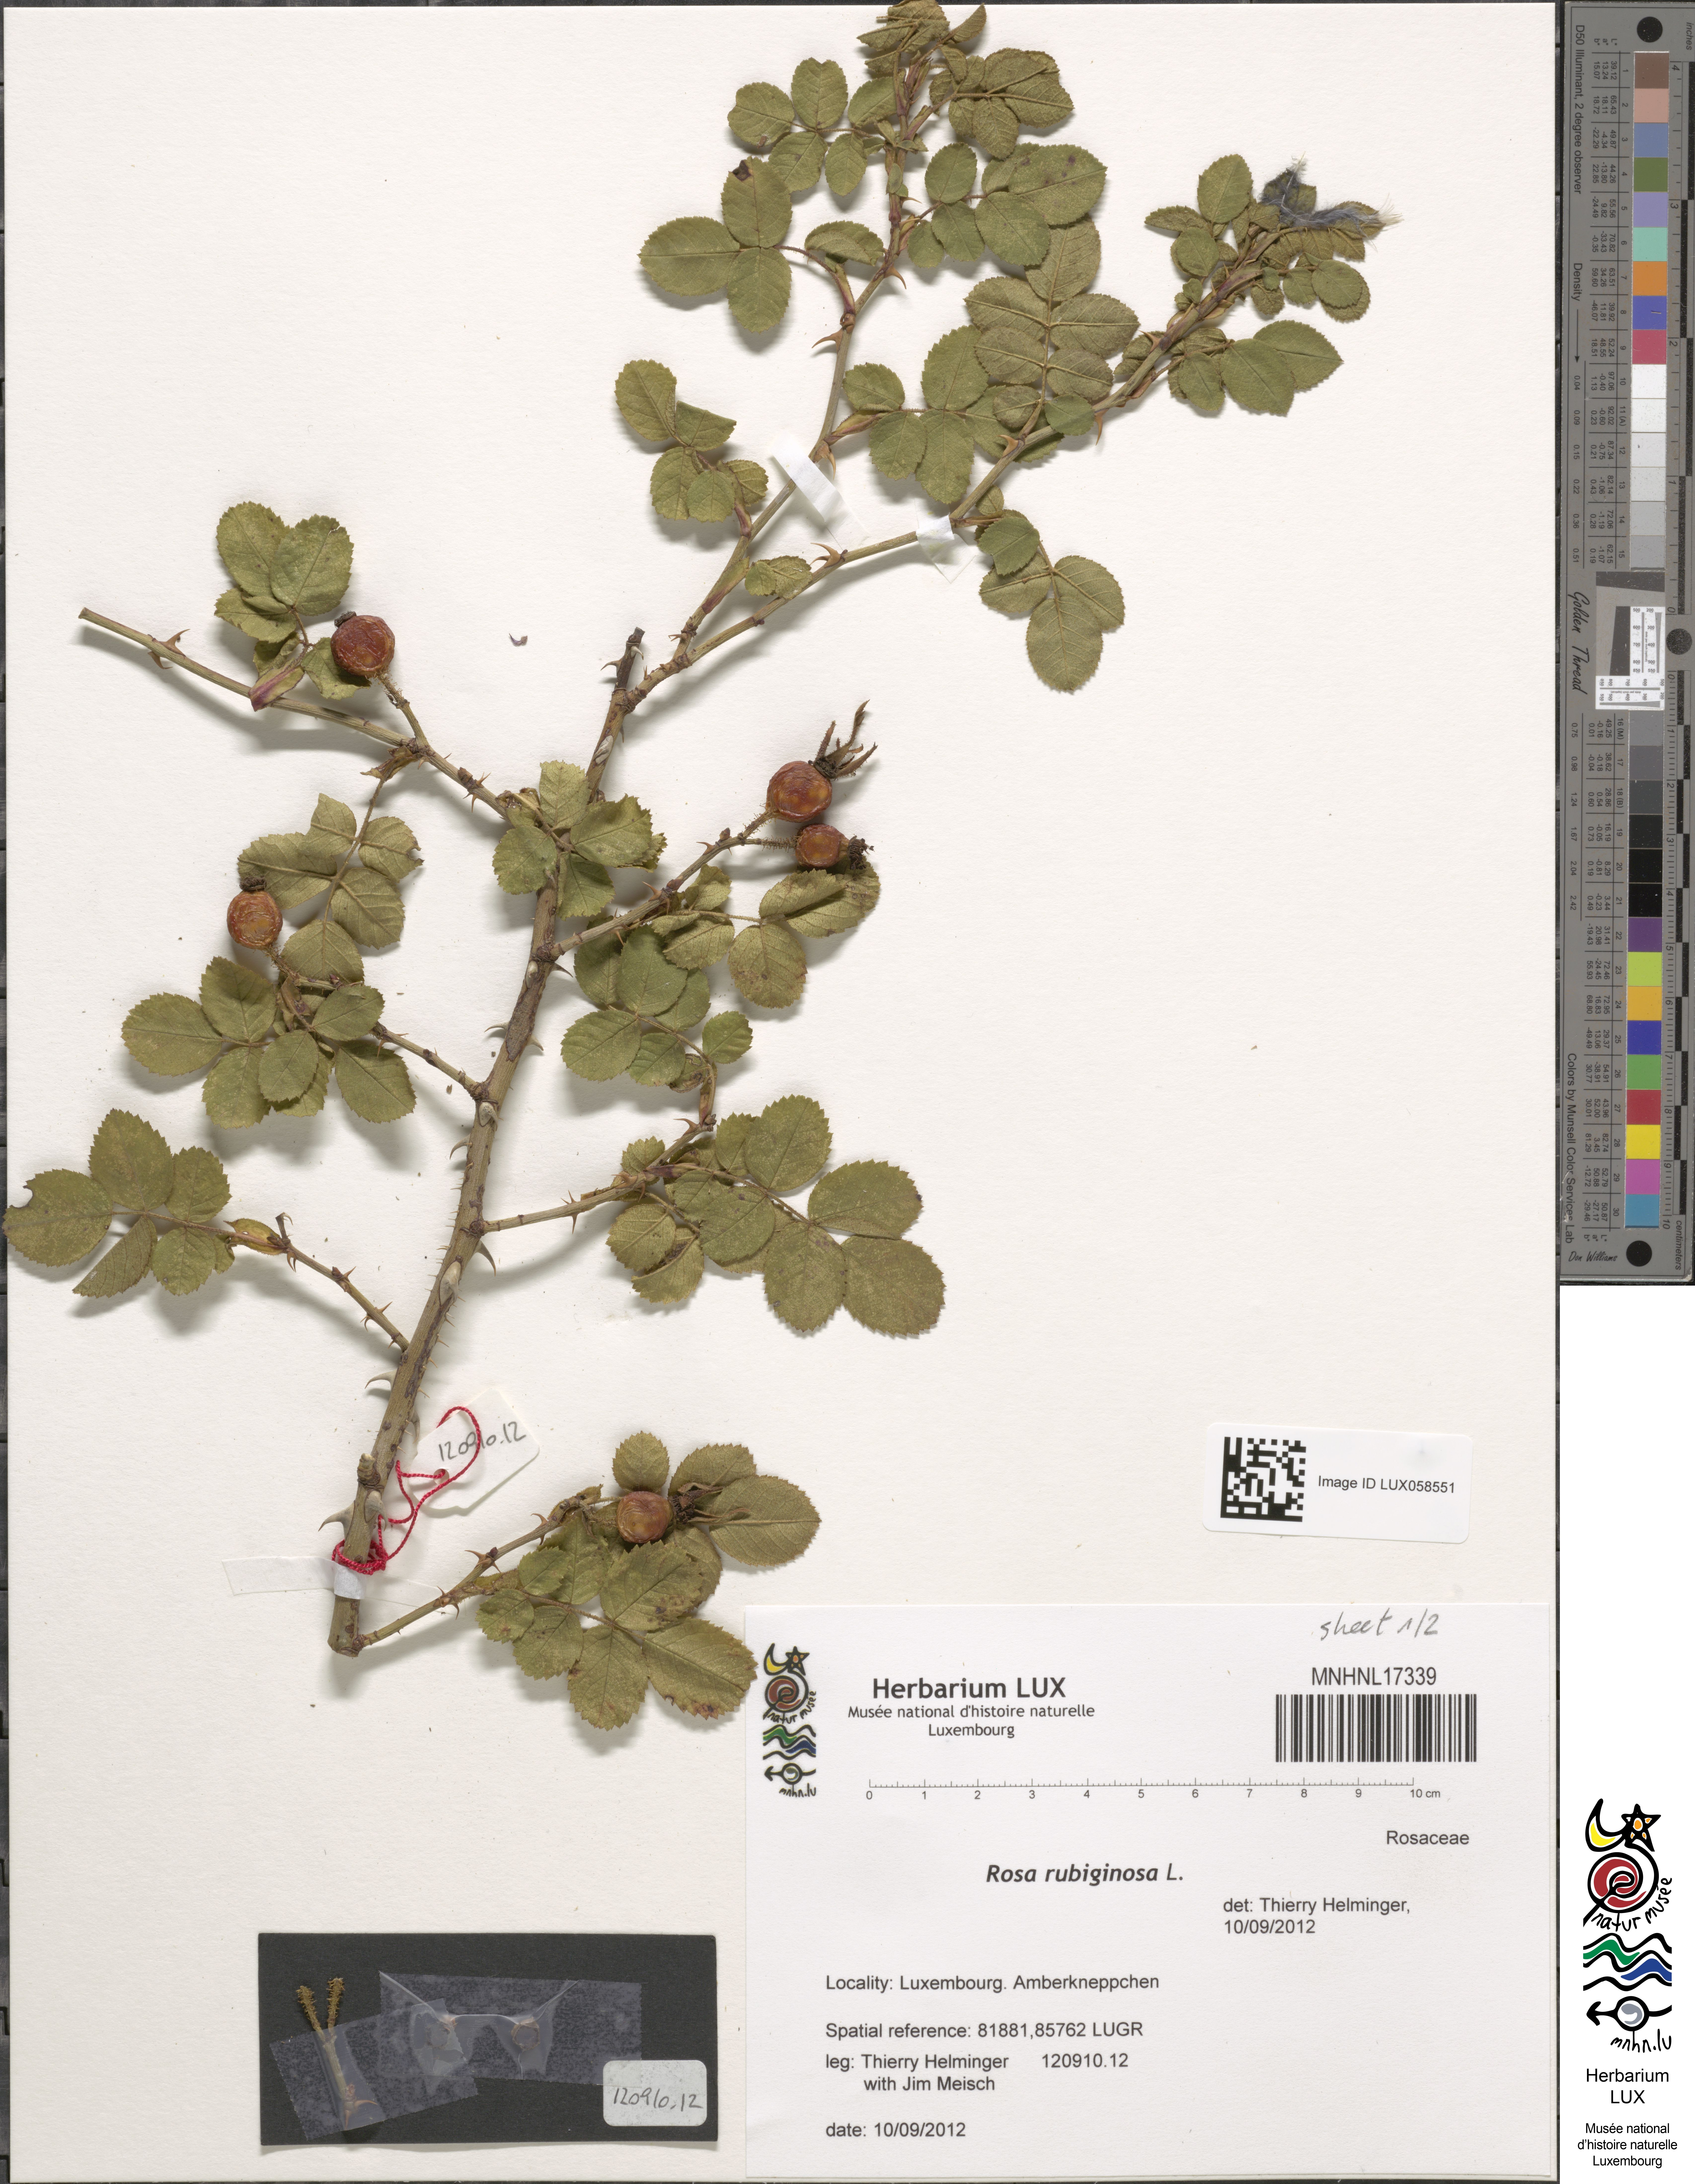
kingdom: Plantae
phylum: Tracheophyta
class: Magnoliopsida
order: Rosales
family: Rosaceae
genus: Rosa
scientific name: Rosa rubiginosa
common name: Sweet-briar
